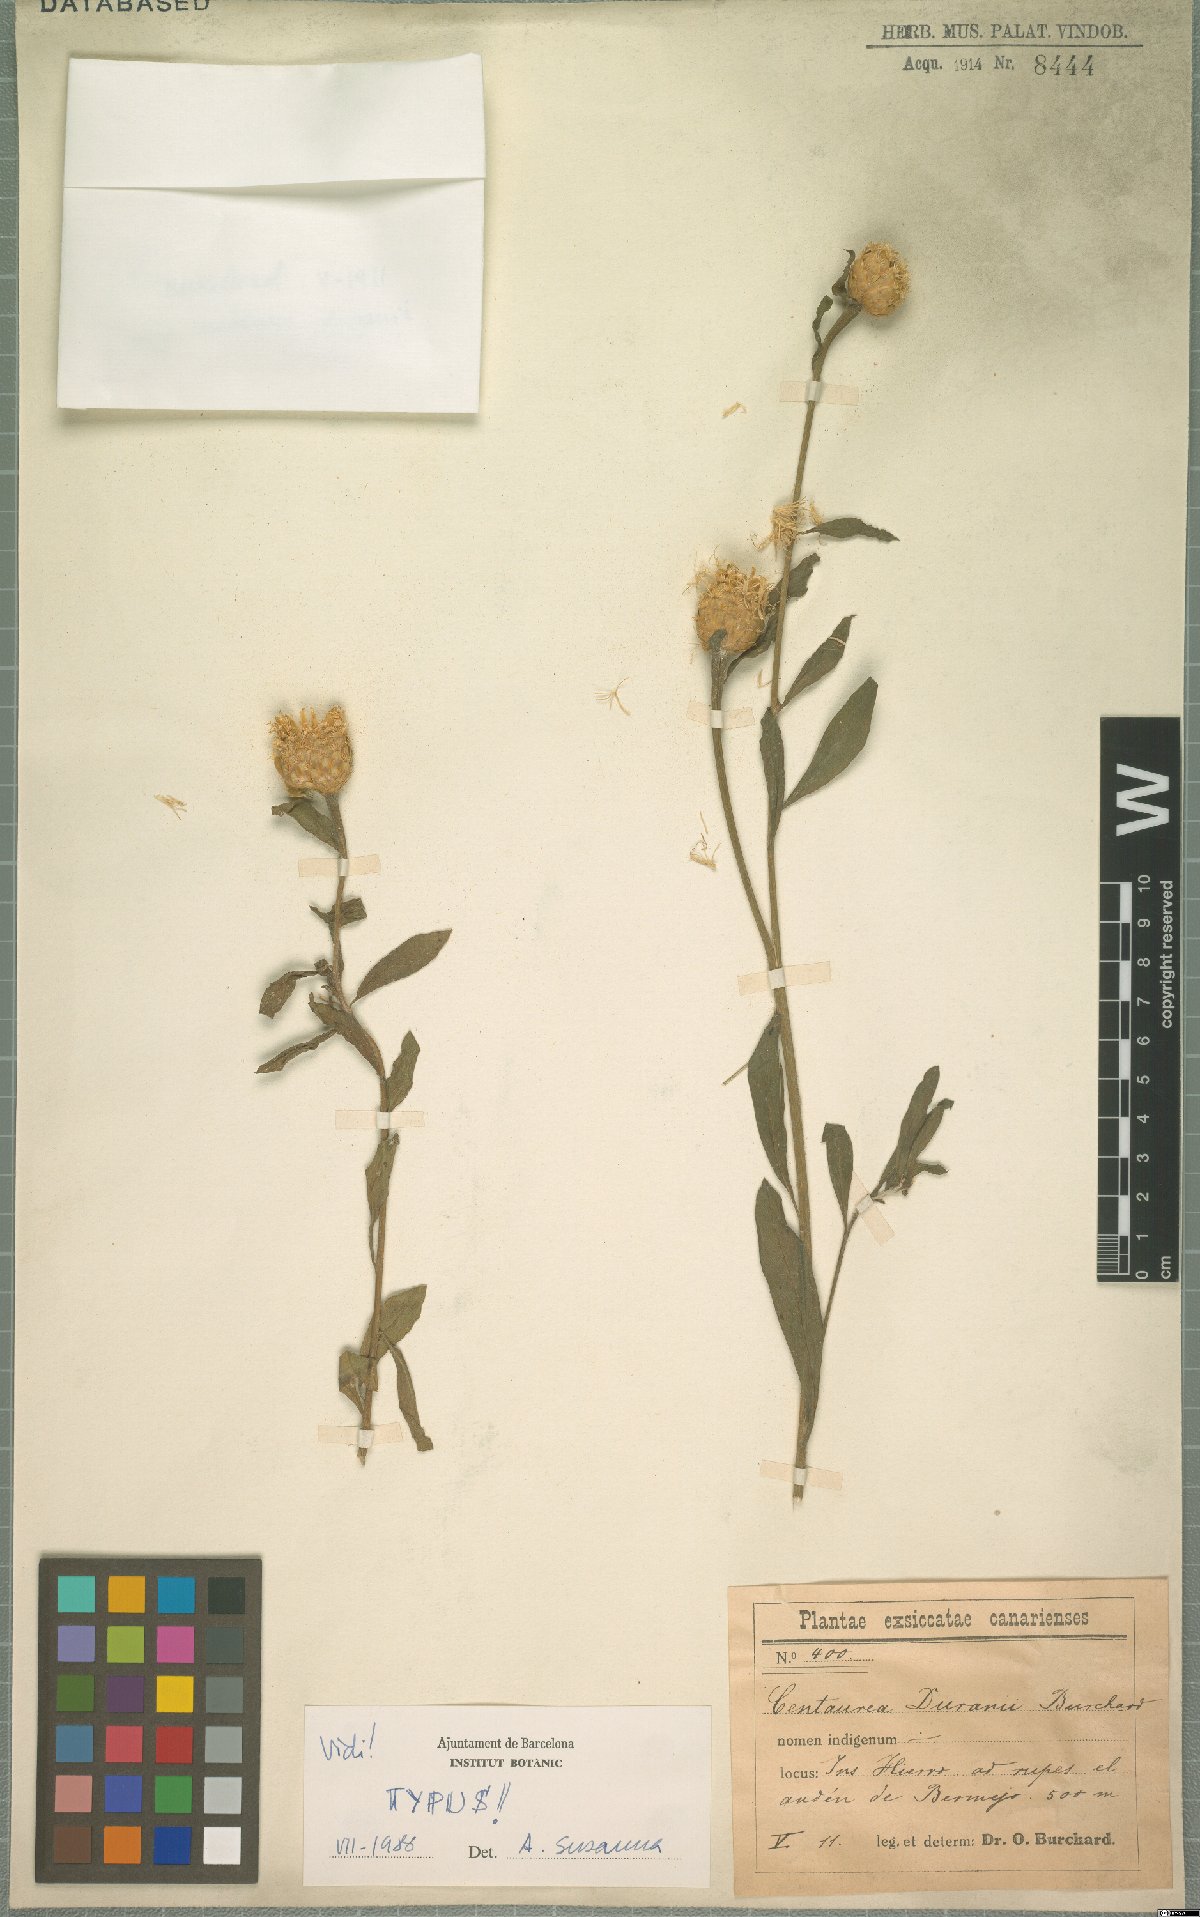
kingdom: Plantae
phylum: Tracheophyta
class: Magnoliopsida
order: Asterales
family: Asteraceae
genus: Cheirolophus
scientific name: Cheirolophus duranii
